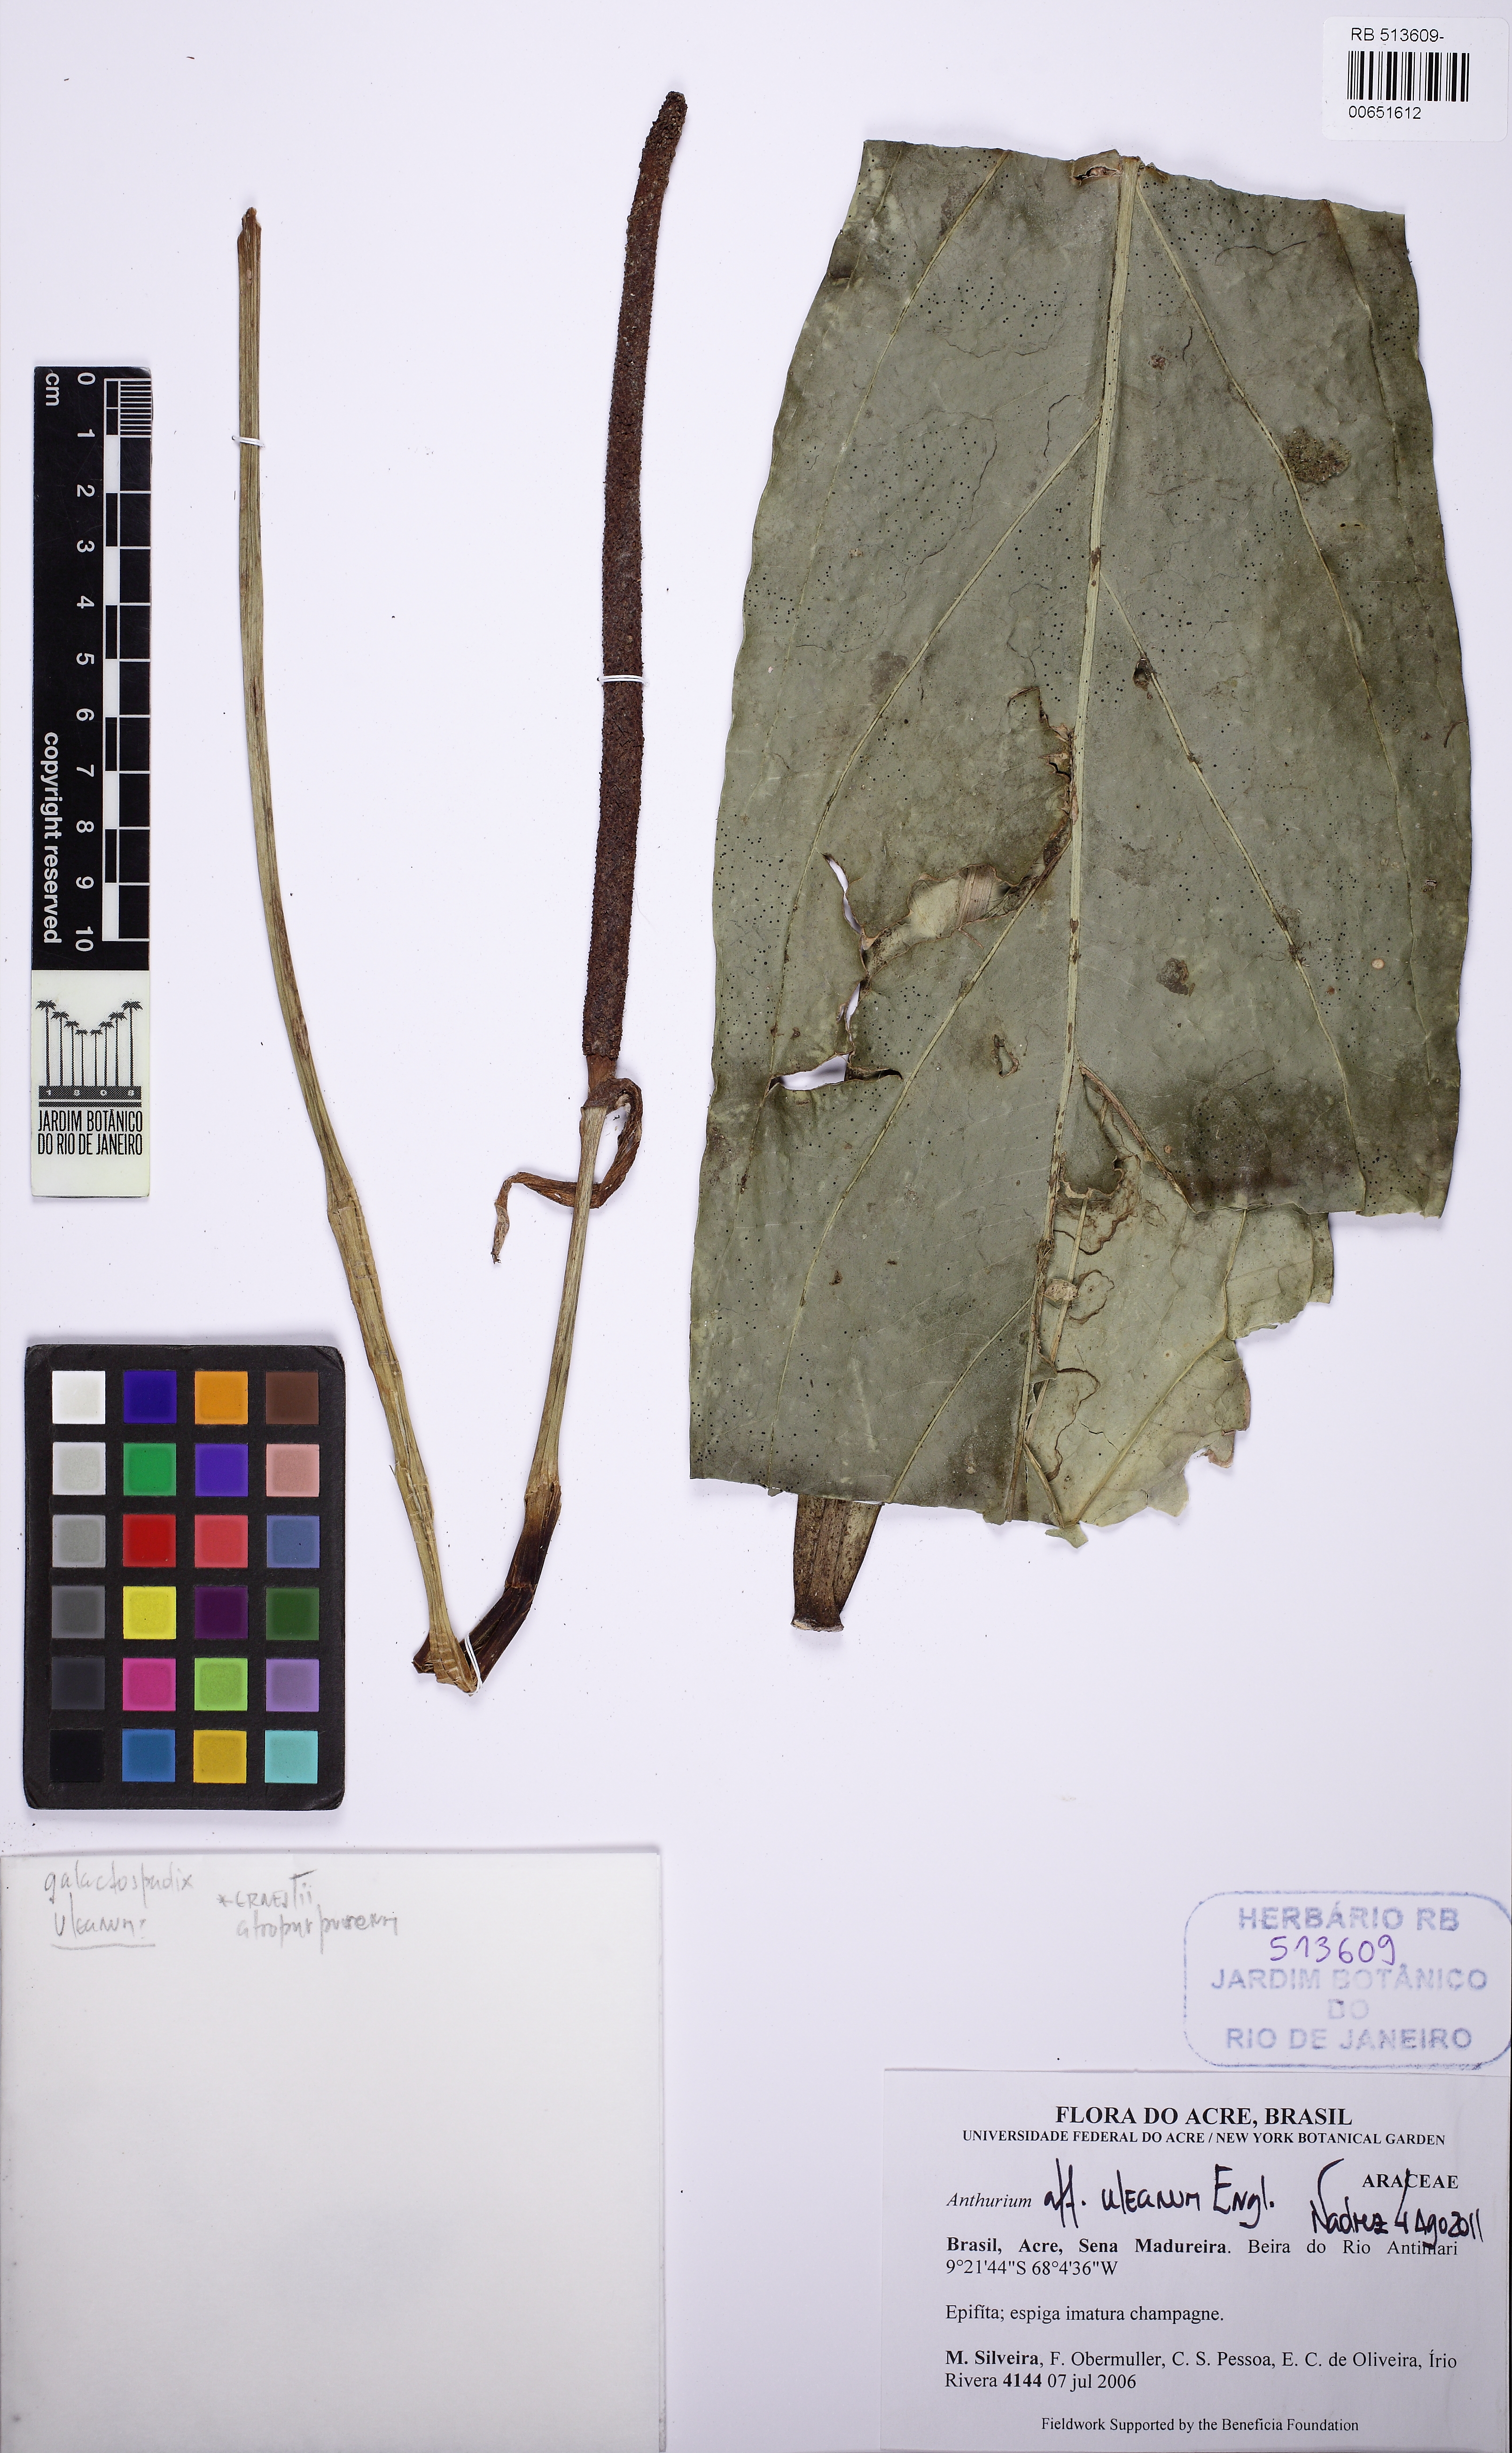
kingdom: Plantae
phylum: Tracheophyta
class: Liliopsida
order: Alismatales
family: Araceae
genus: Anthurium
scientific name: Anthurium uleanum
